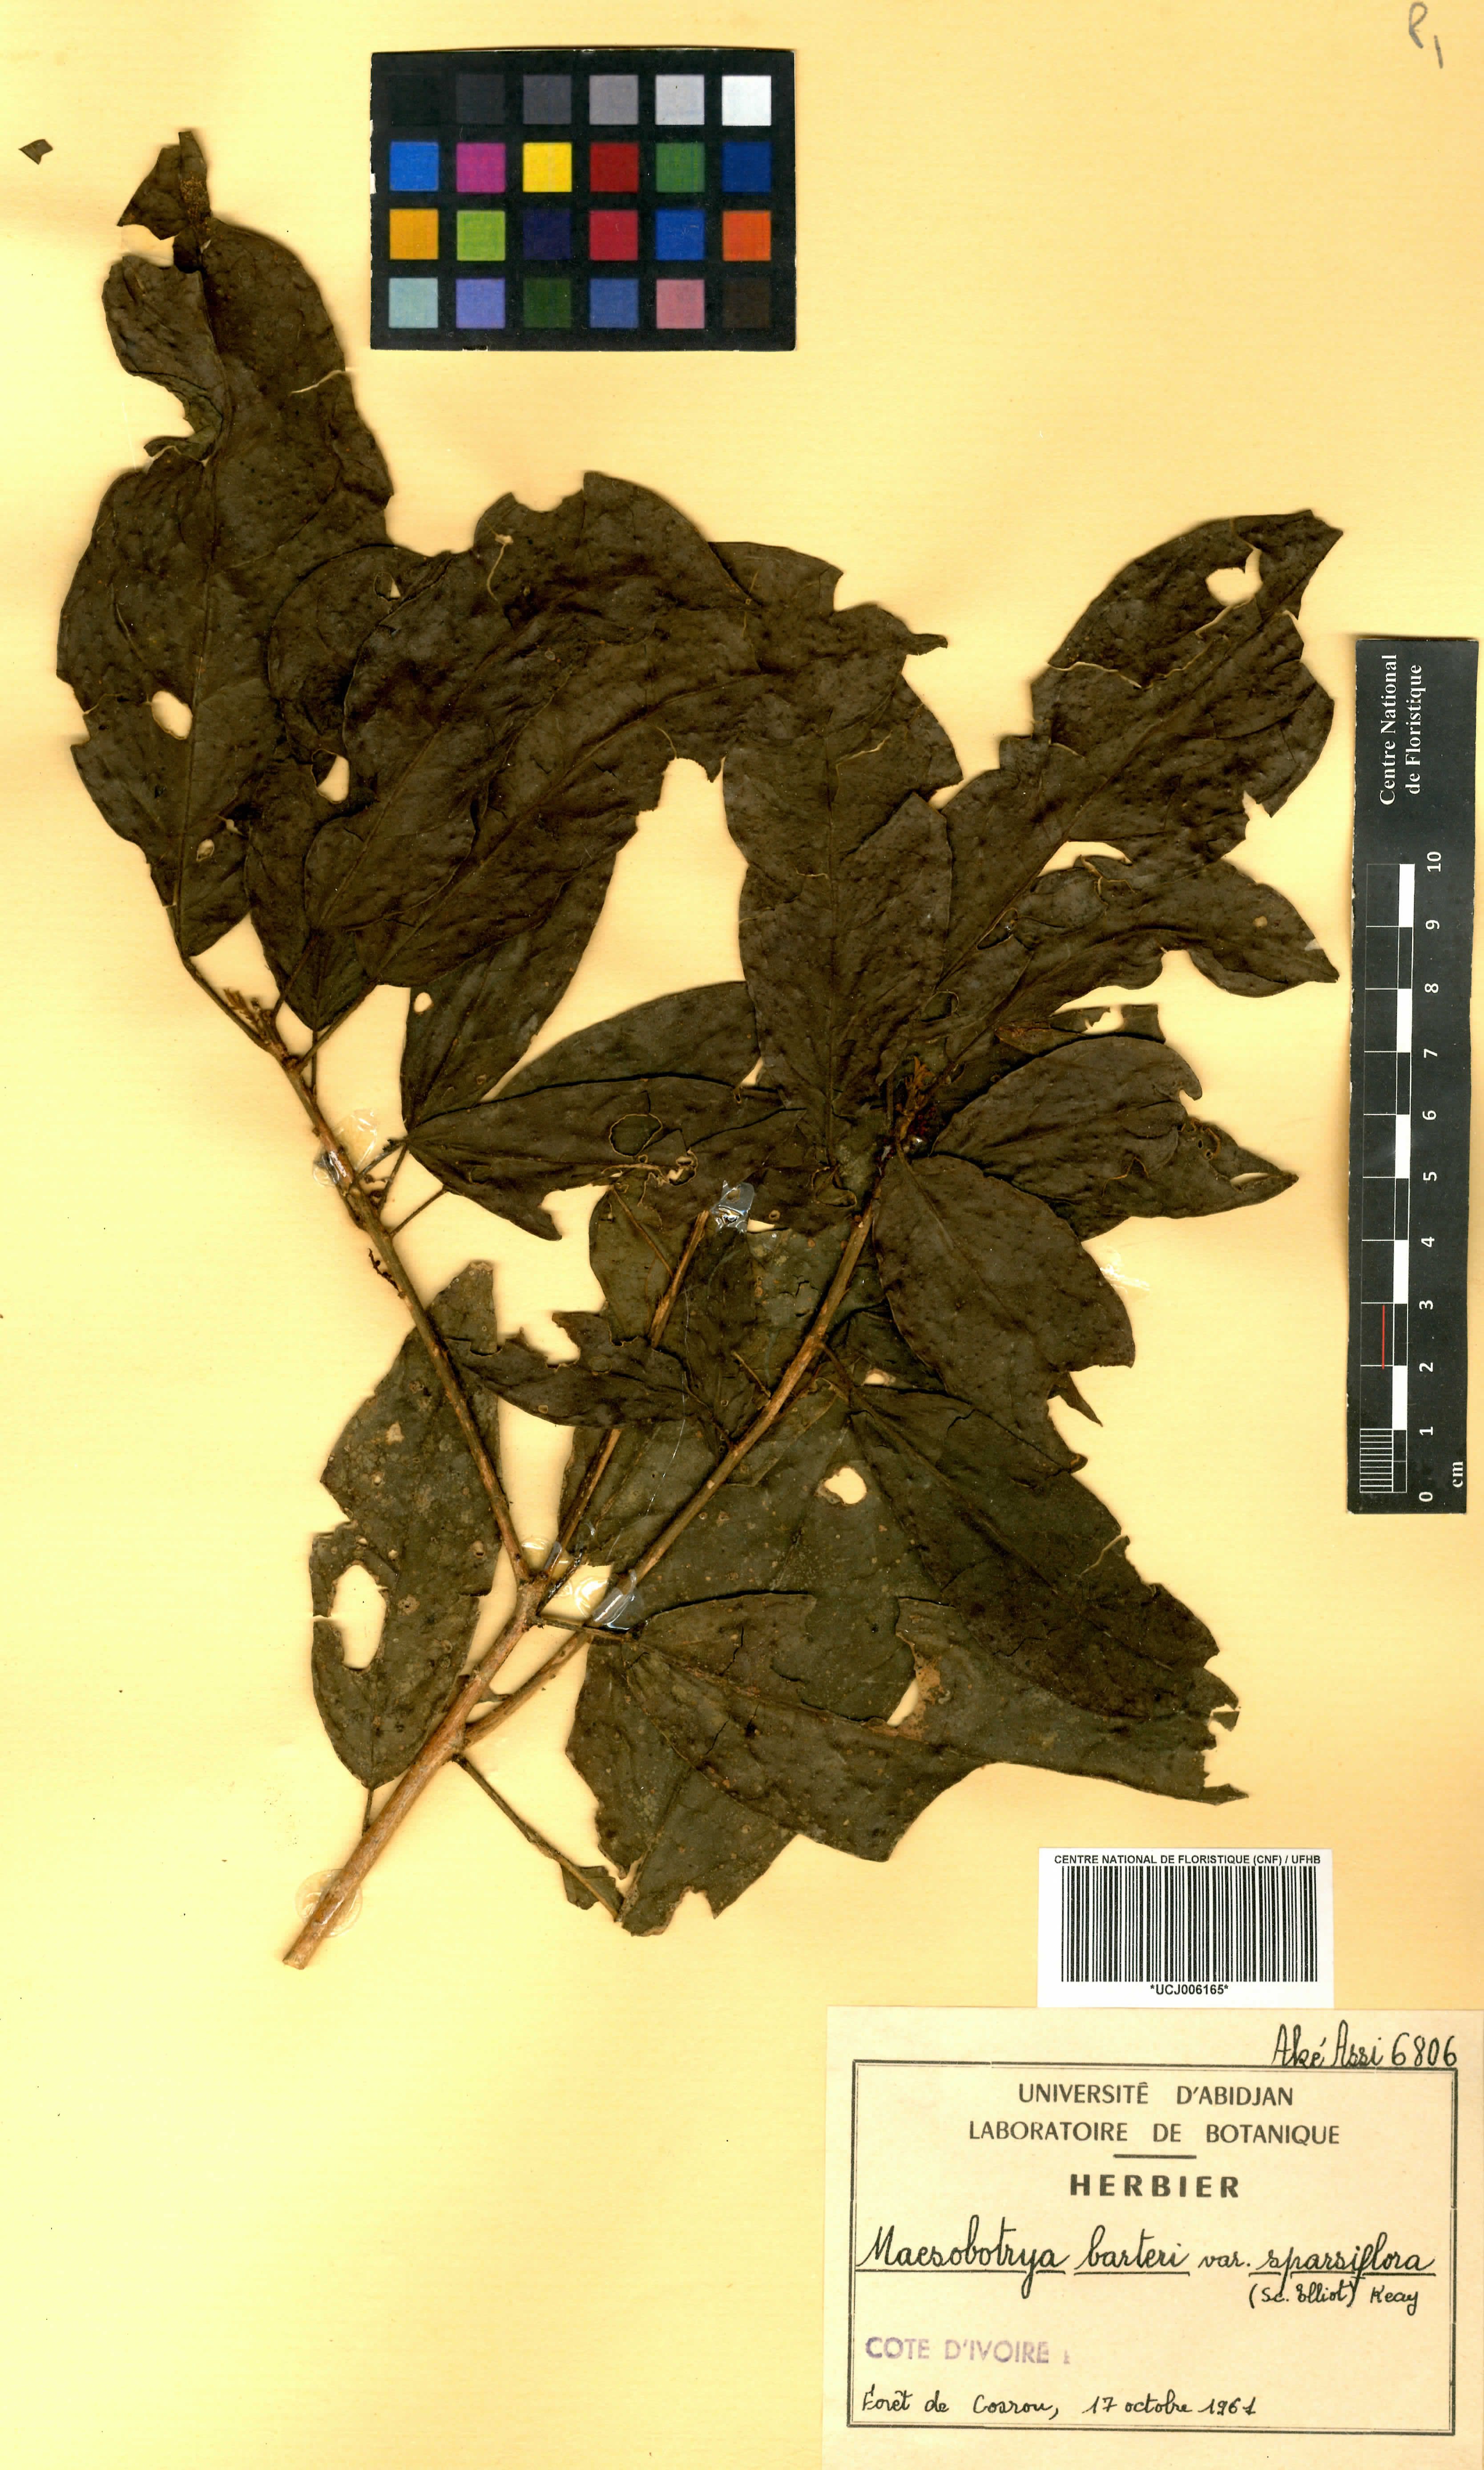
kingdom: Plantae
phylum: Tracheophyta
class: Magnoliopsida
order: Malpighiales
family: Phyllanthaceae
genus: Maesobotrya
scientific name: Maesobotrya barteri
